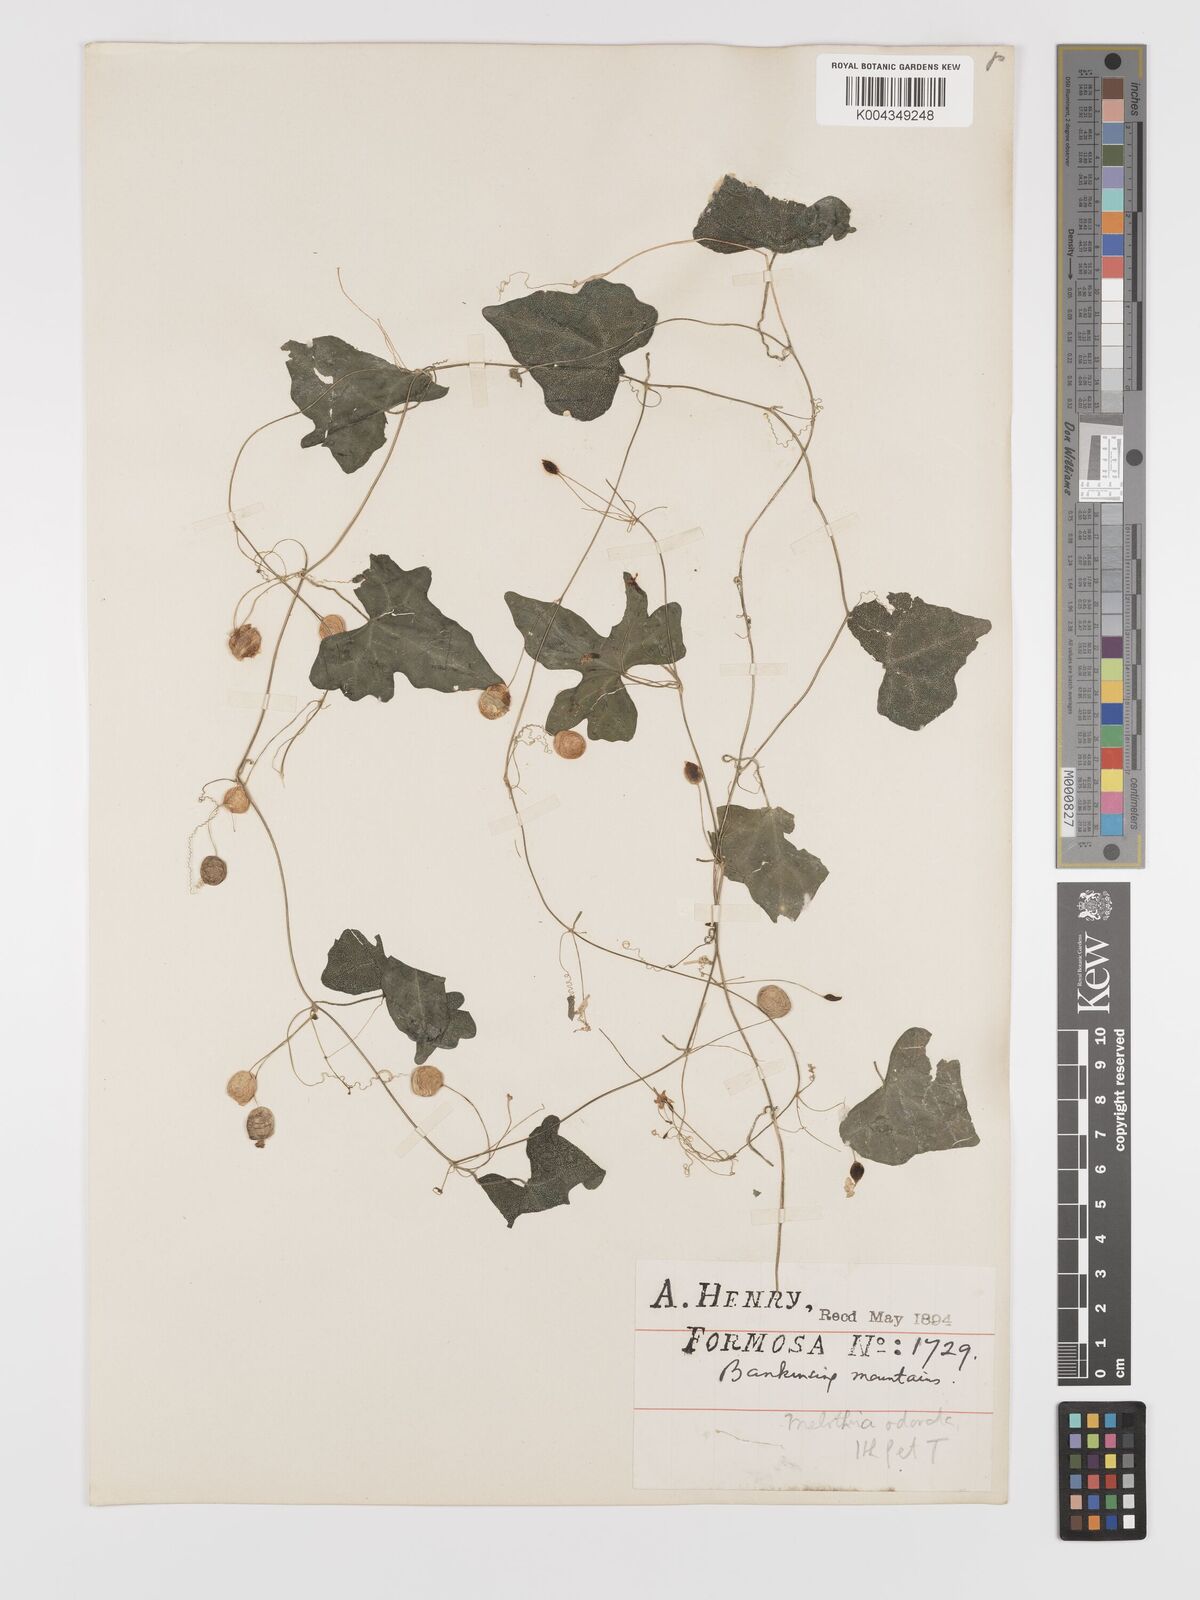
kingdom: Plantae
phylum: Tracheophyta
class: Magnoliopsida
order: Cucurbitales
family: Cucurbitaceae
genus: Zehneria
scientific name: Zehneria japonica
